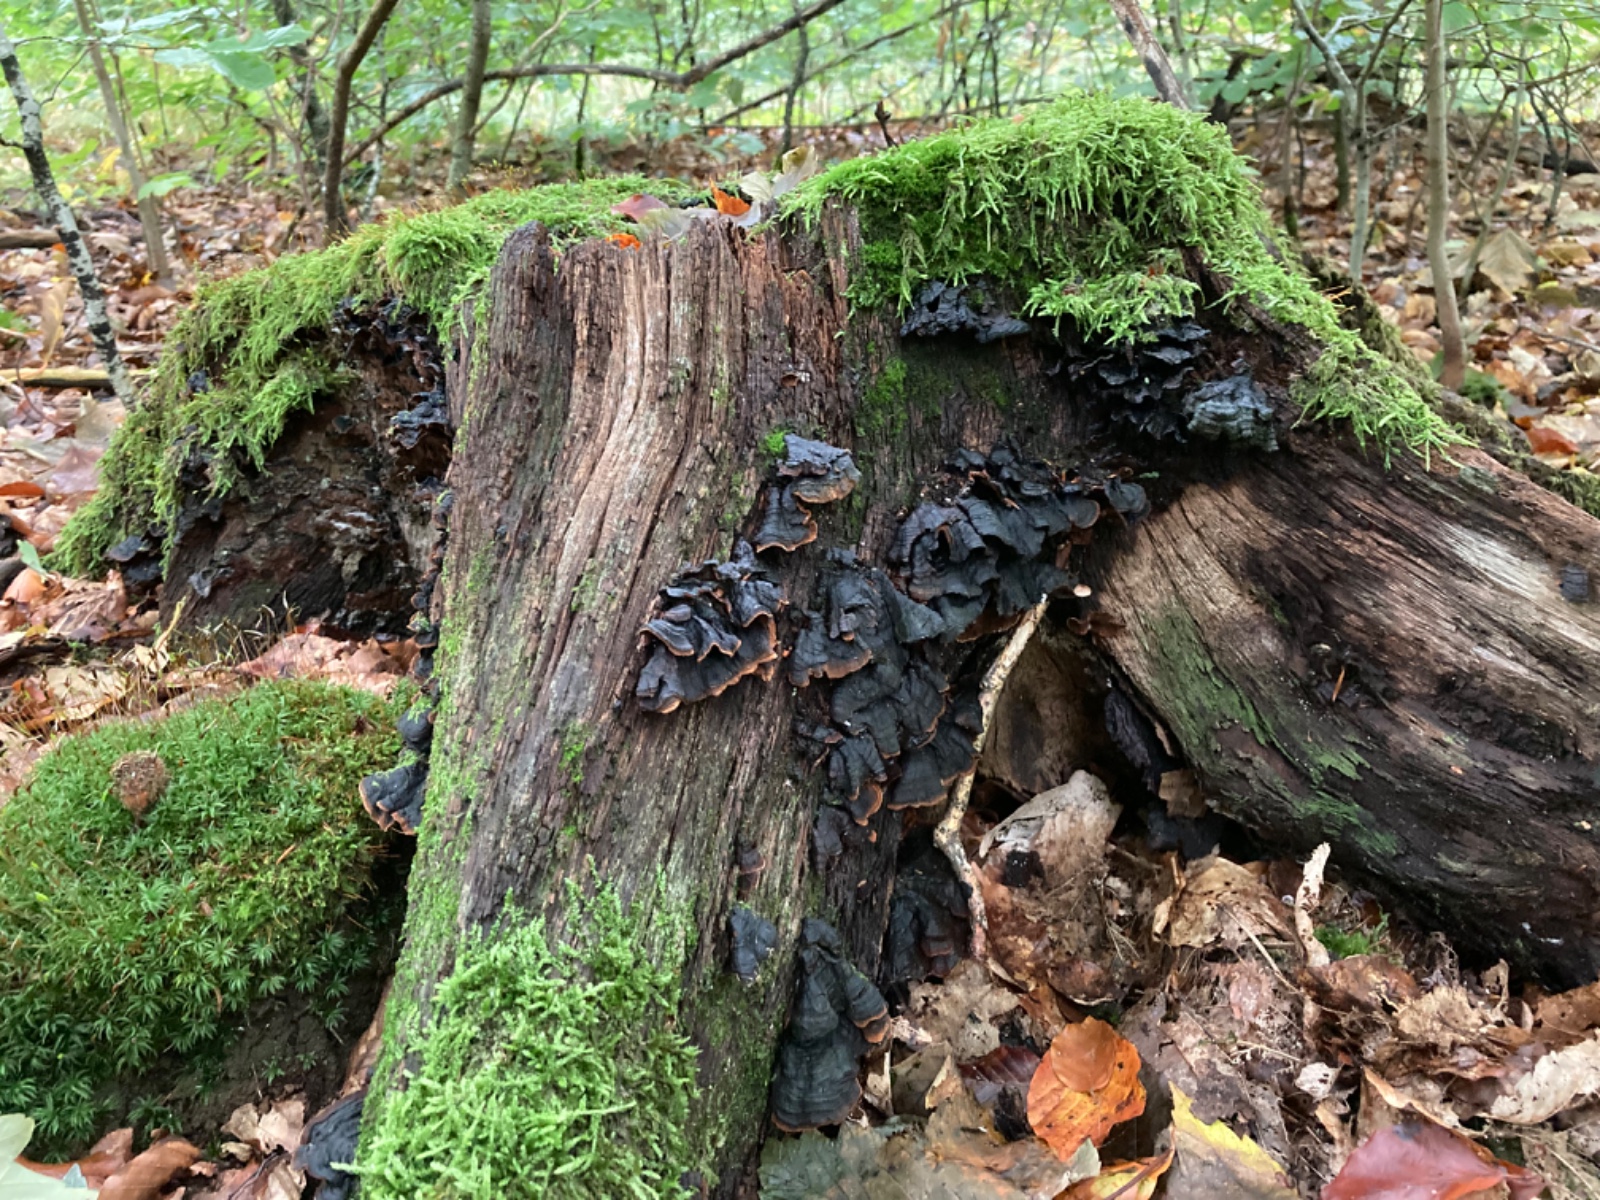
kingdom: Fungi
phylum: Basidiomycota
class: Agaricomycetes
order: Hymenochaetales
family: Hymenochaetaceae
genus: Hymenochaete
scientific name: Hymenochaete rubiginosa
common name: stiv ruslædersvamp
